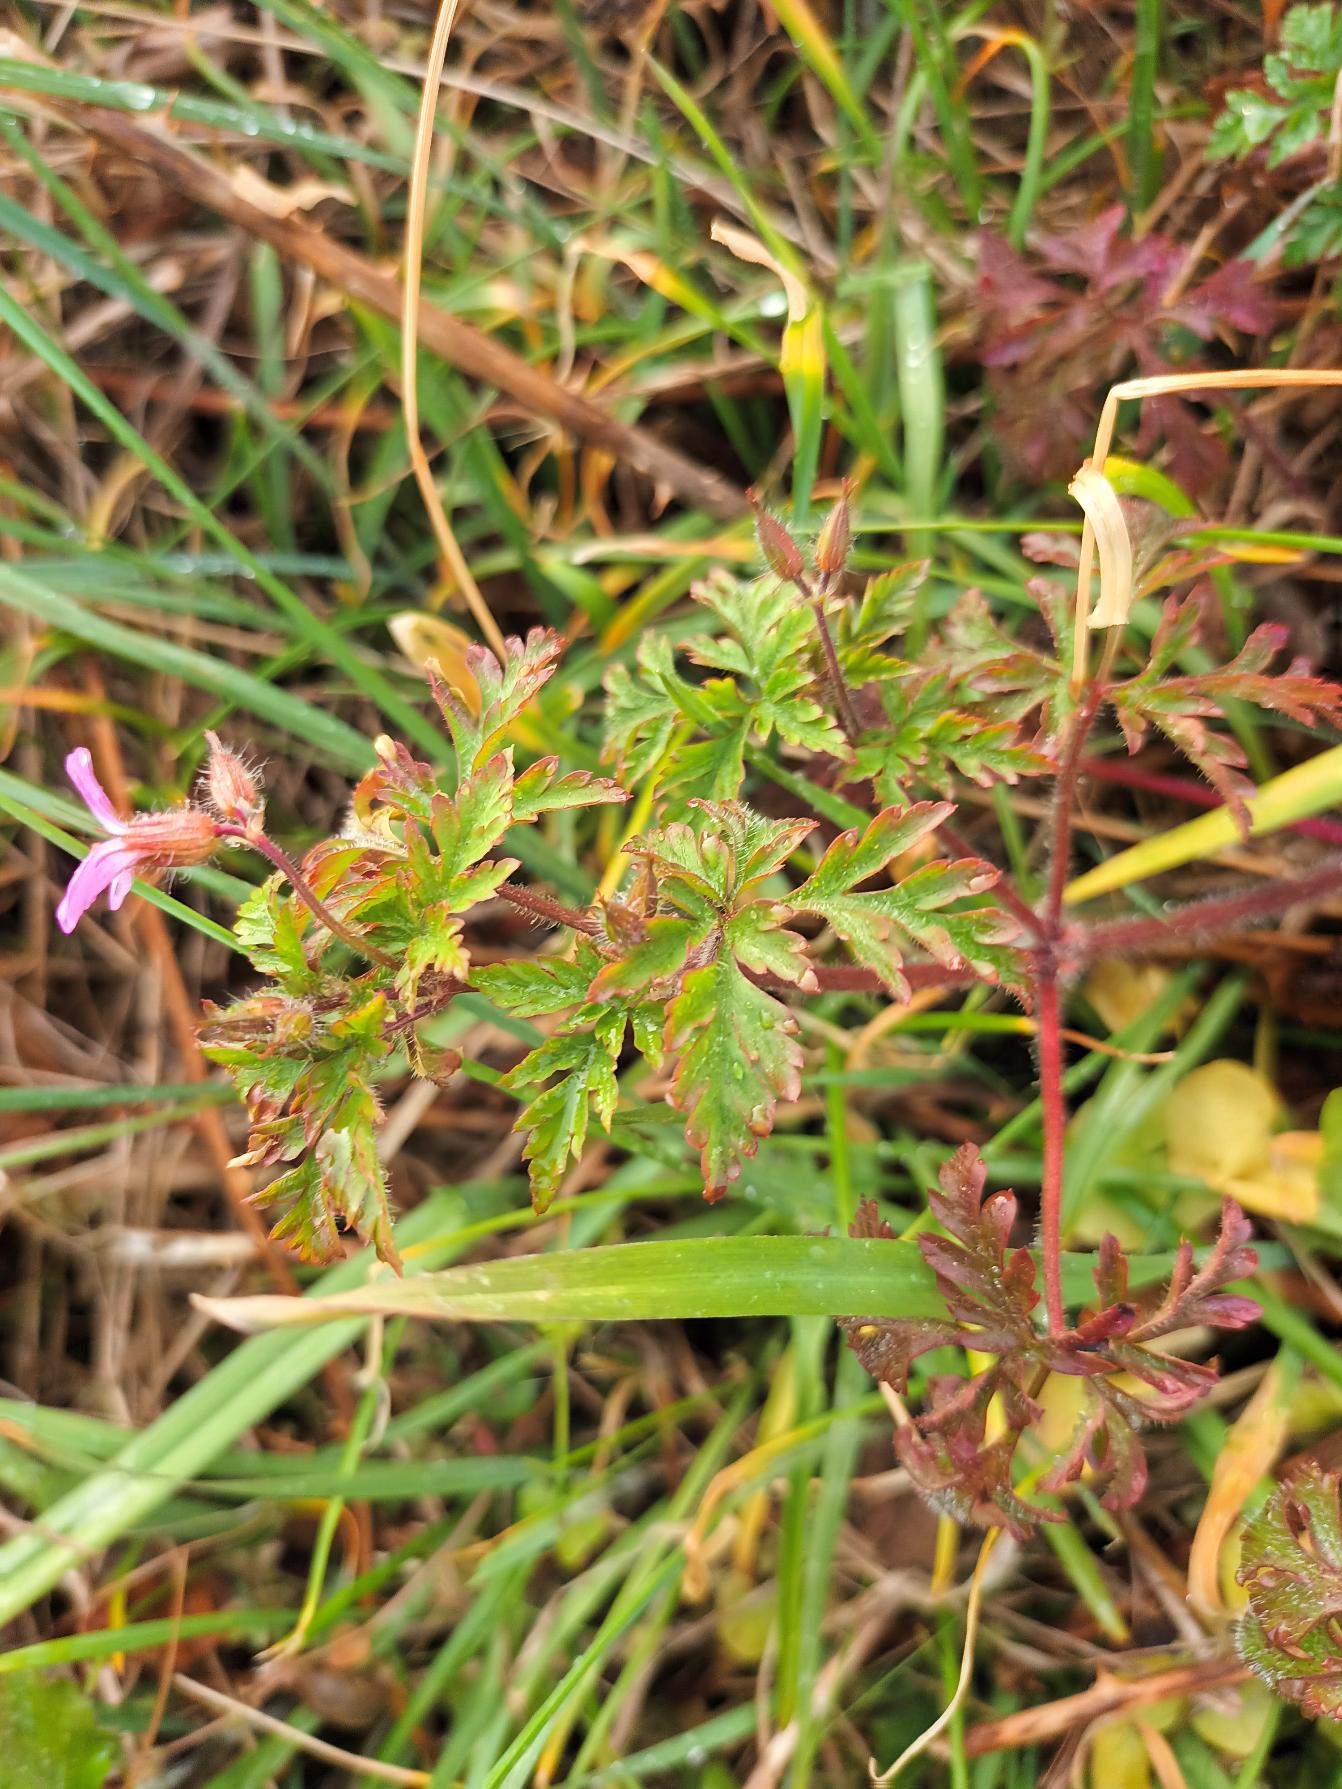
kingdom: Plantae
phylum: Tracheophyta
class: Magnoliopsida
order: Geraniales
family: Geraniaceae
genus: Geranium
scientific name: Geranium robertianum
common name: Stinkende storkenæb
